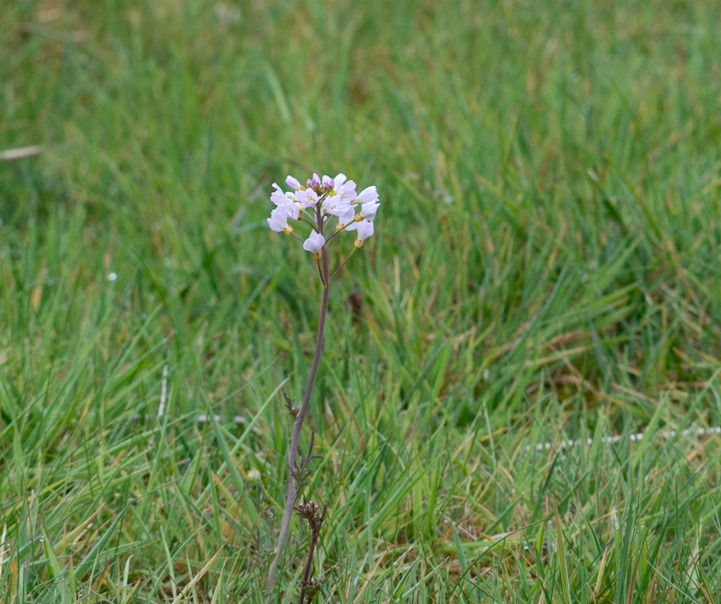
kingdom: Plantae
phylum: Tracheophyta
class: Magnoliopsida
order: Brassicales
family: Brassicaceae
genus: Cardamine
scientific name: Cardamine pratensis
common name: Engkarse
